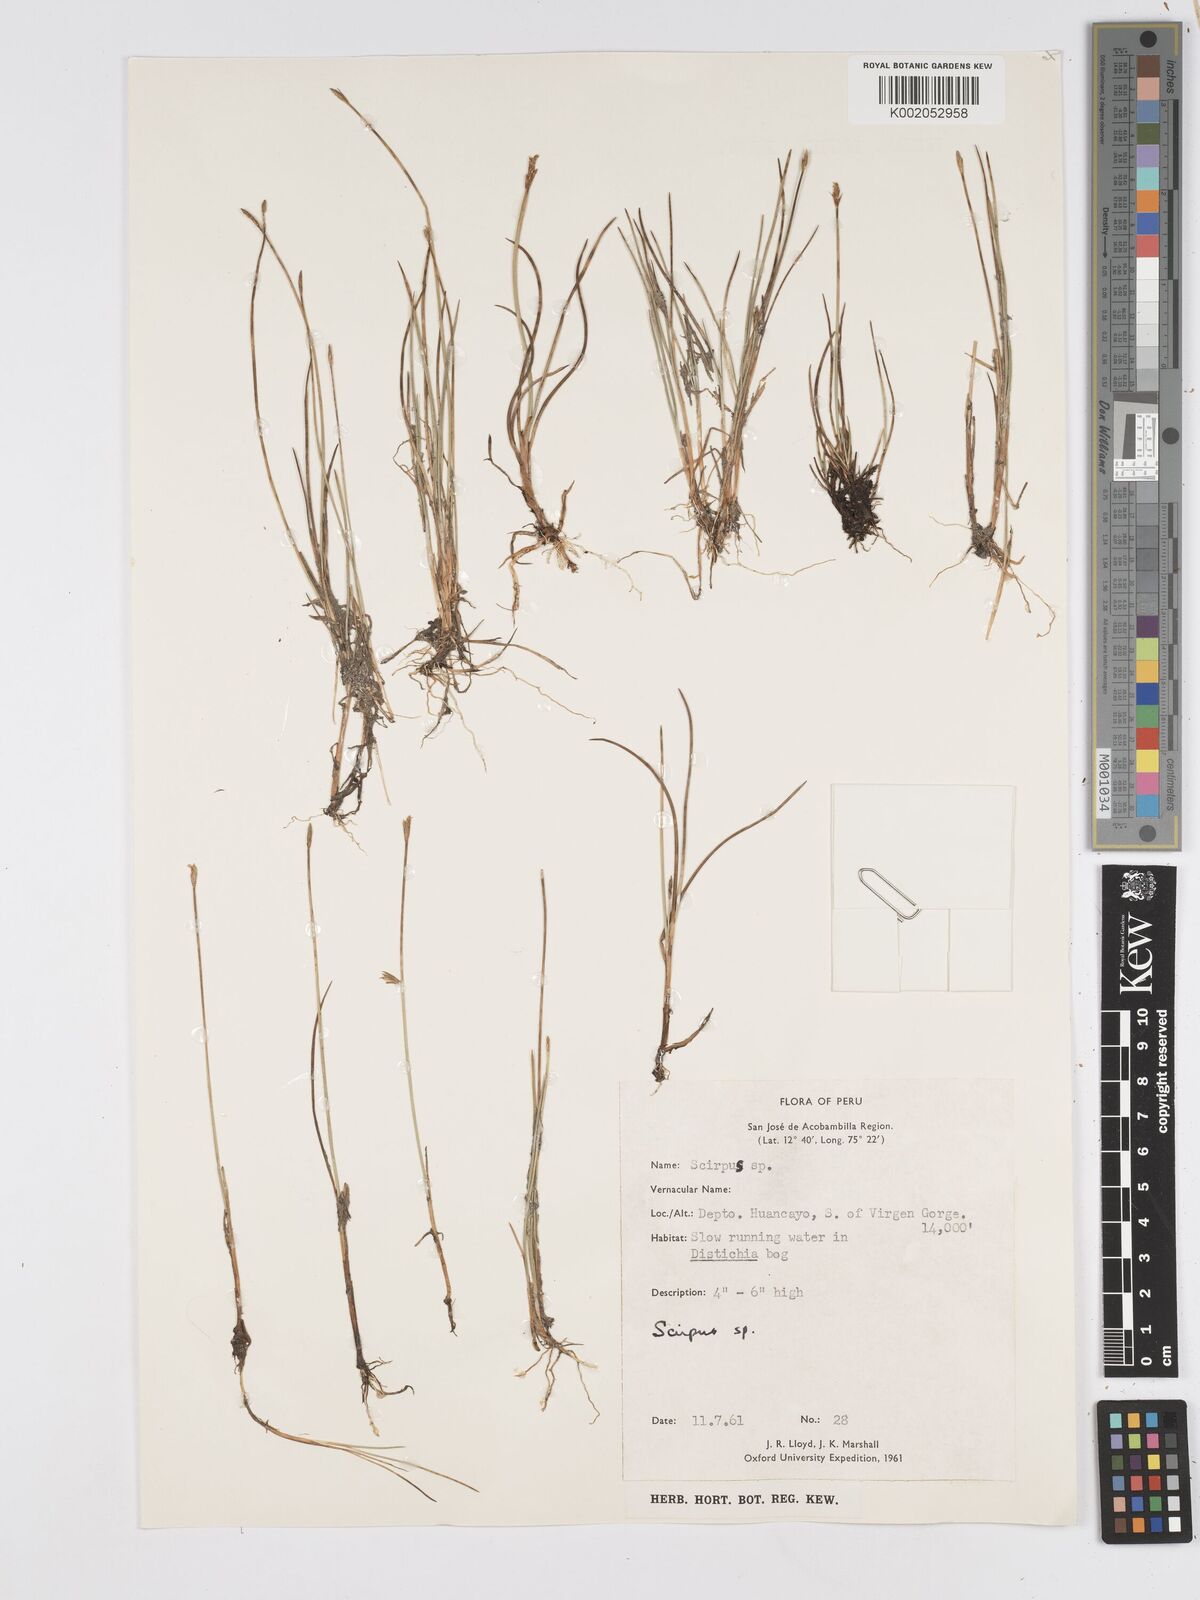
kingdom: Plantae
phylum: Tracheophyta
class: Liliopsida
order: Poales
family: Cyperaceae
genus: Scirpus
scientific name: Scirpus
